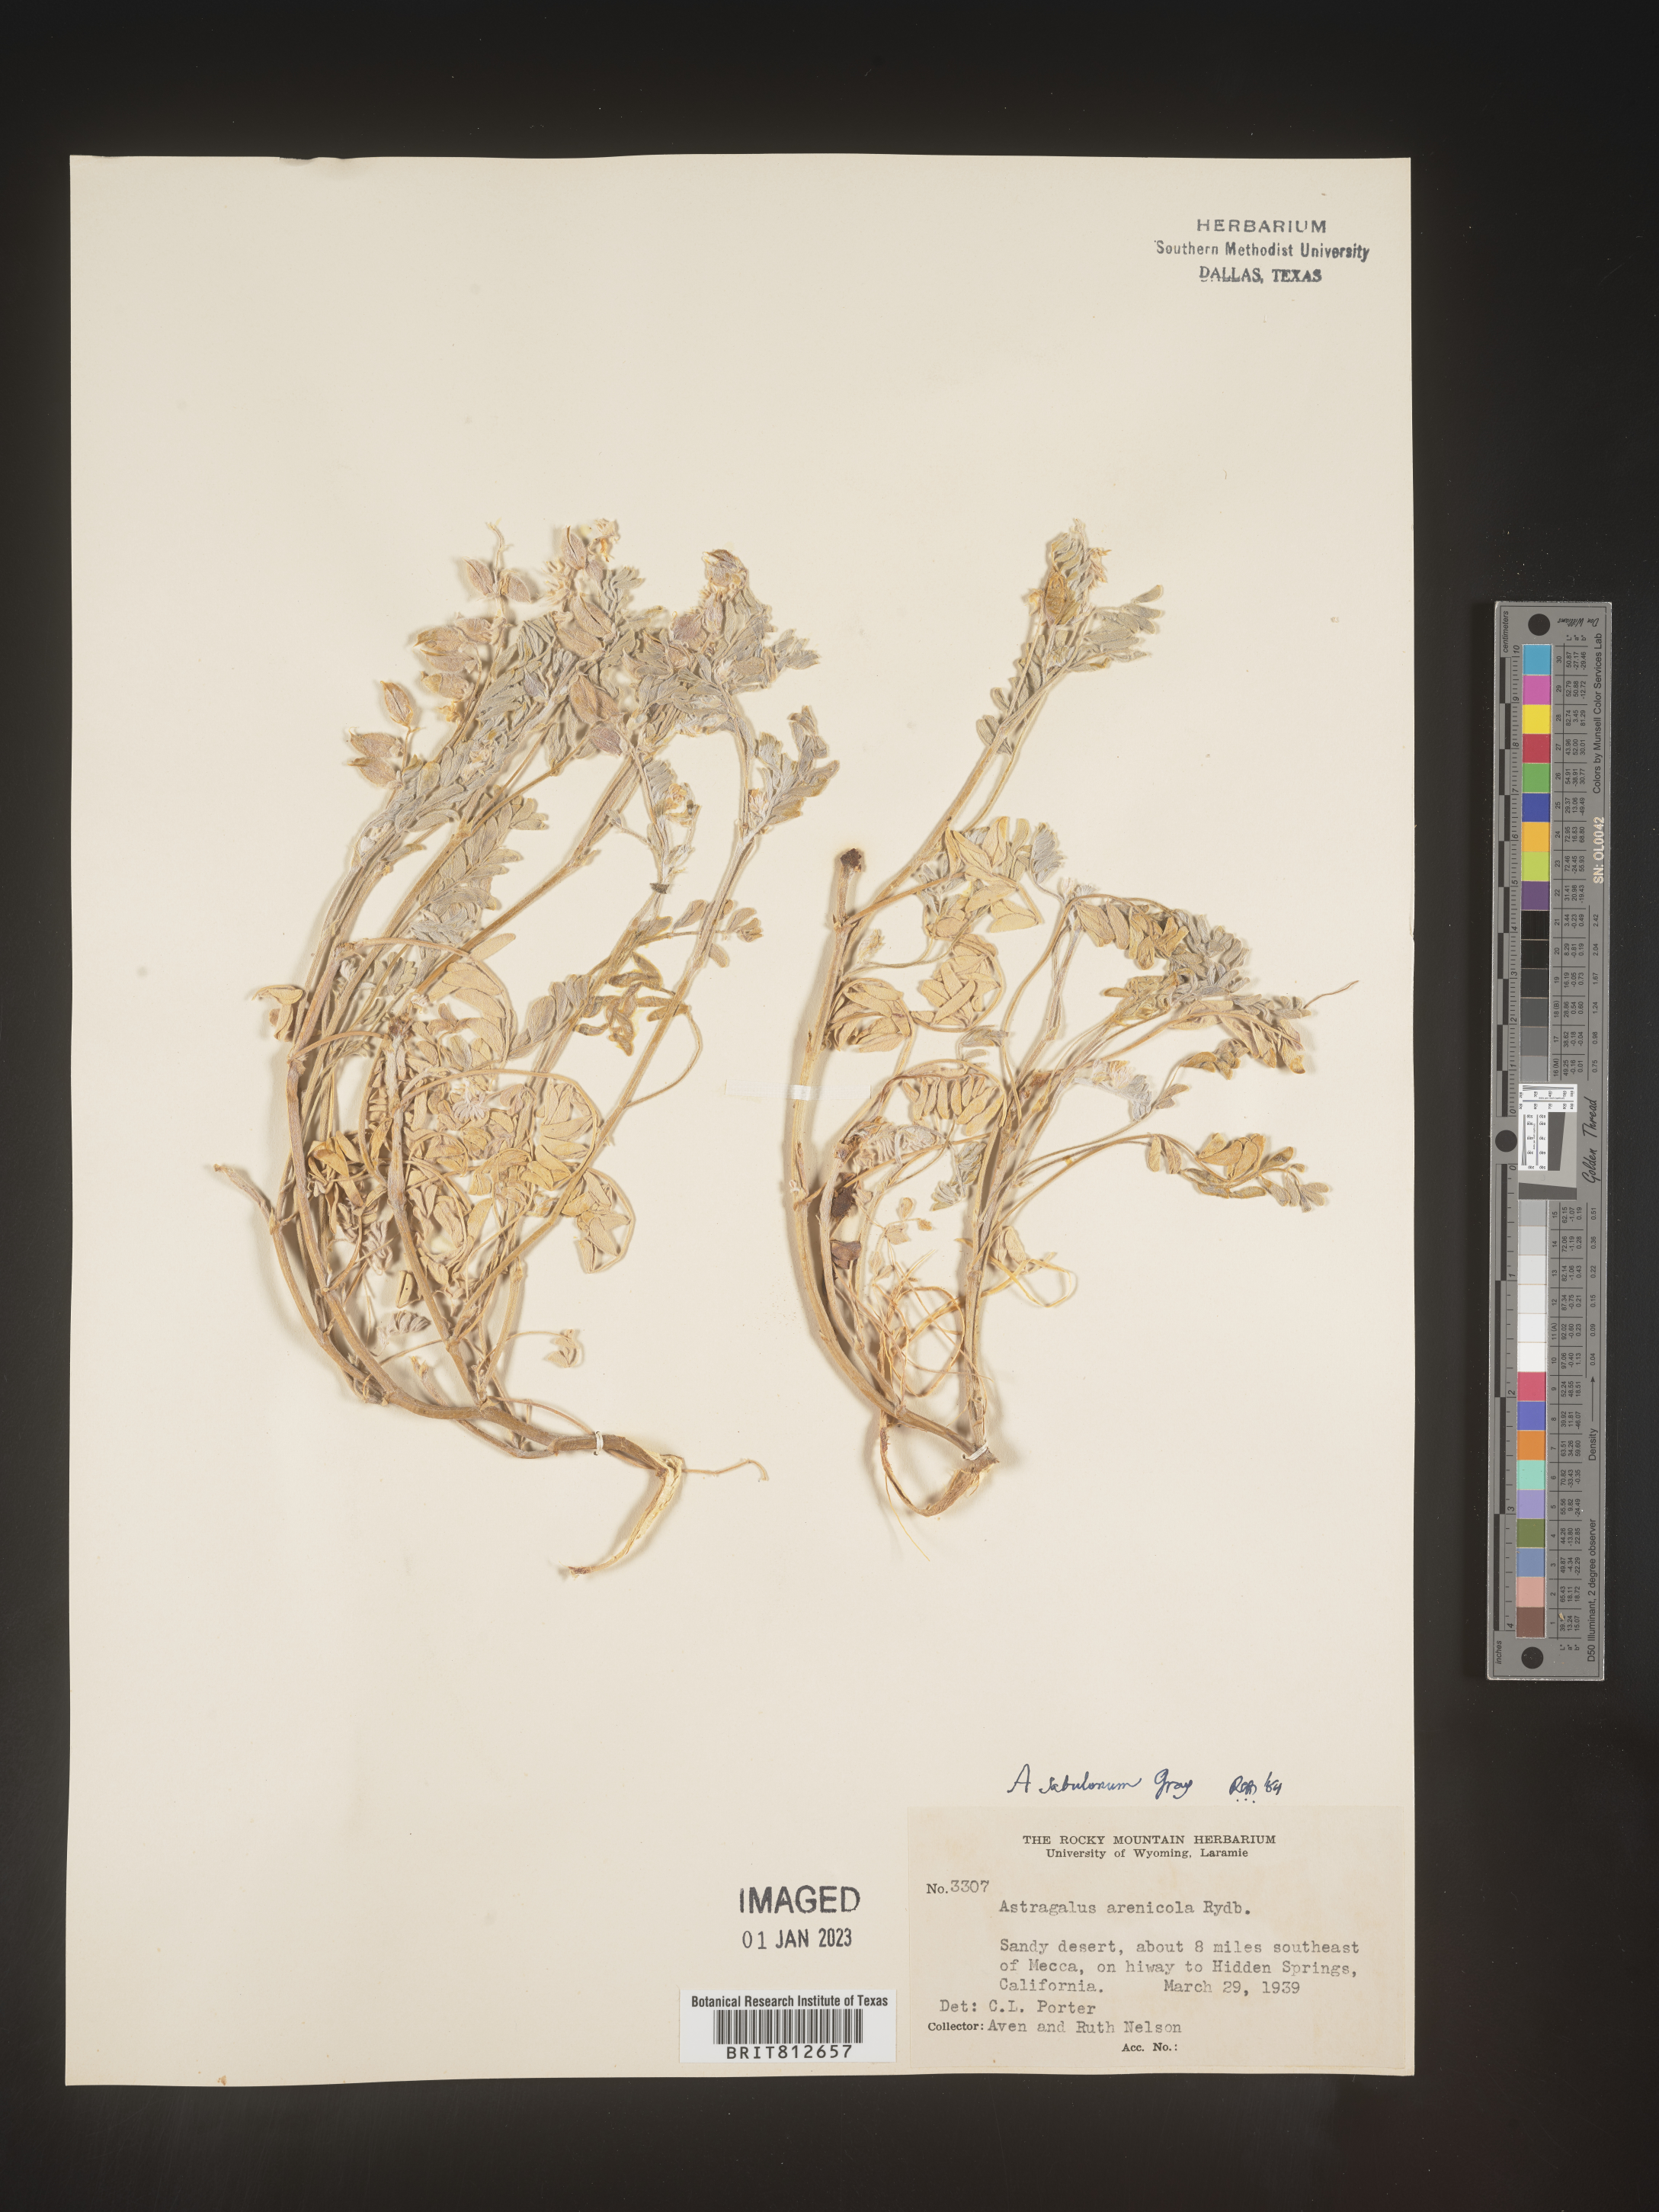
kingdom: Plantae
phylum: Tracheophyta
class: Magnoliopsida
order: Fabales
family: Fabaceae
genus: Astragalus
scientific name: Astragalus
